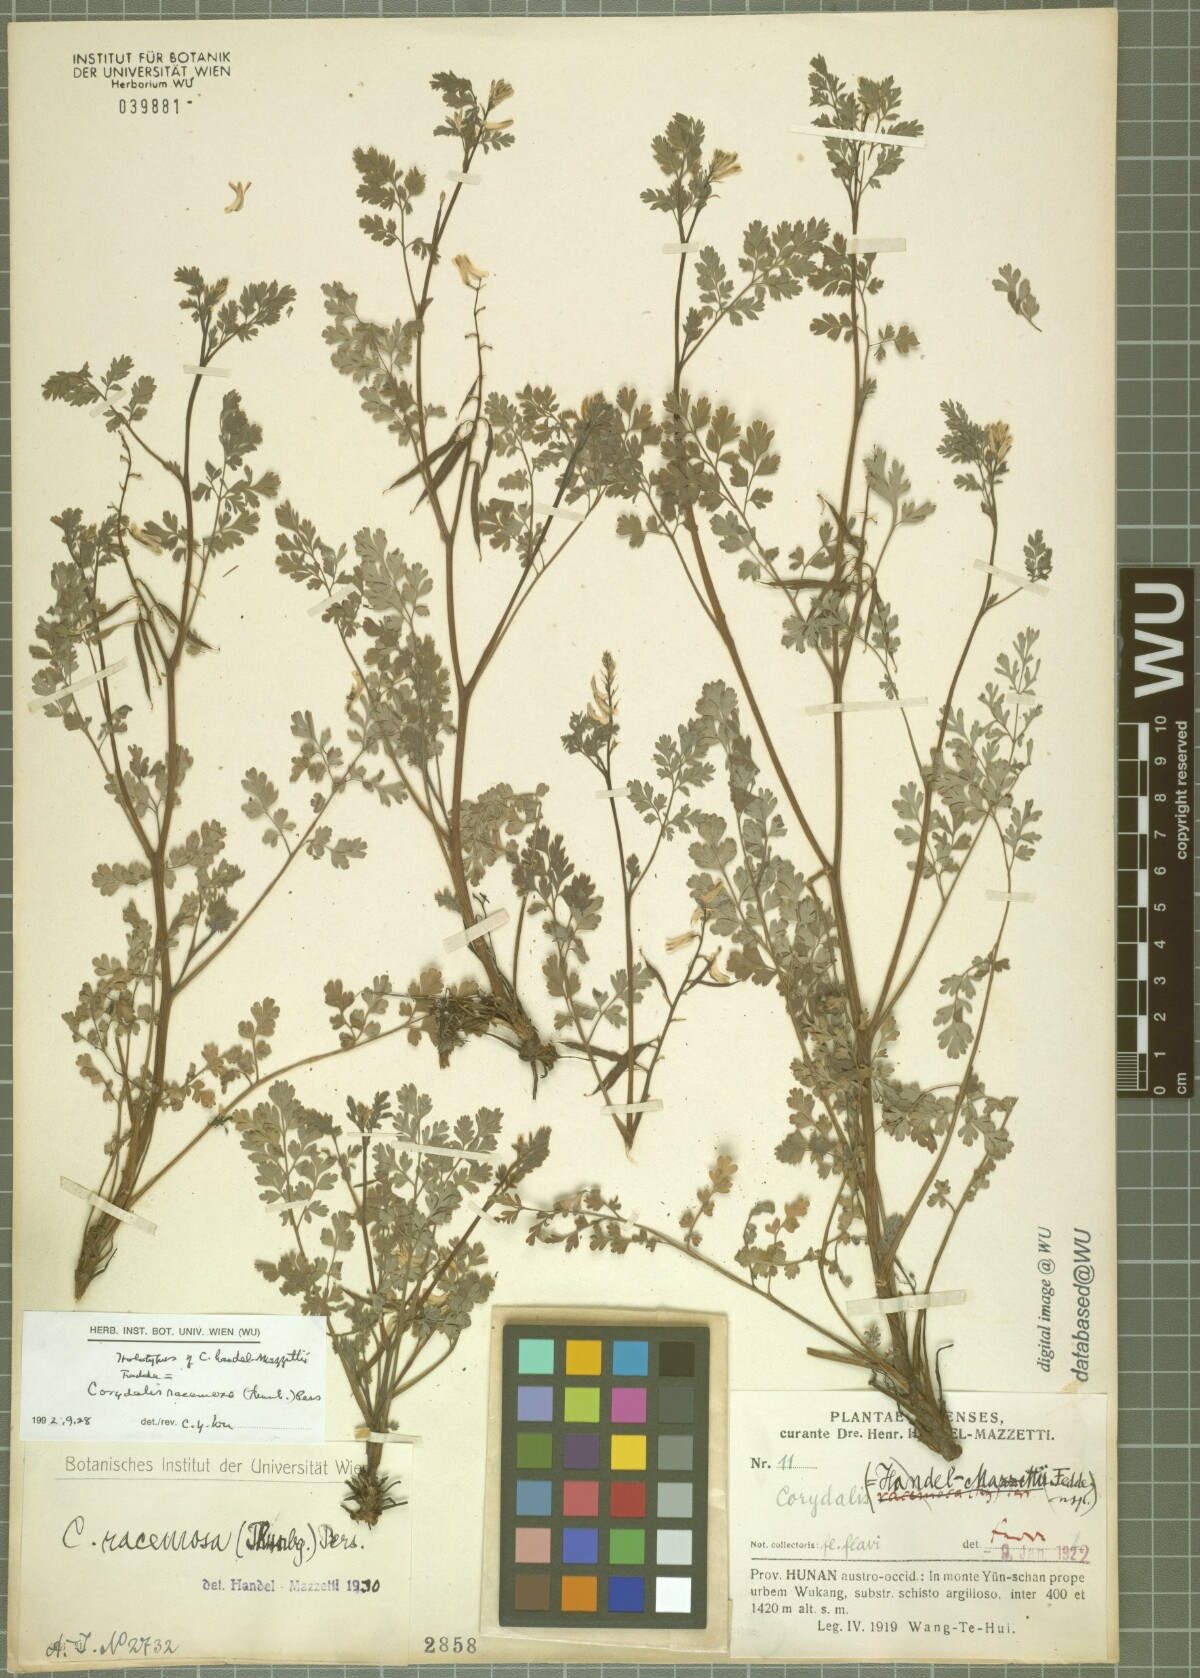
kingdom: Plantae
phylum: Tracheophyta
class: Magnoliopsida
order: Ranunculales
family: Papaveraceae
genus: Corydalis
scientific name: Corydalis racemosa
